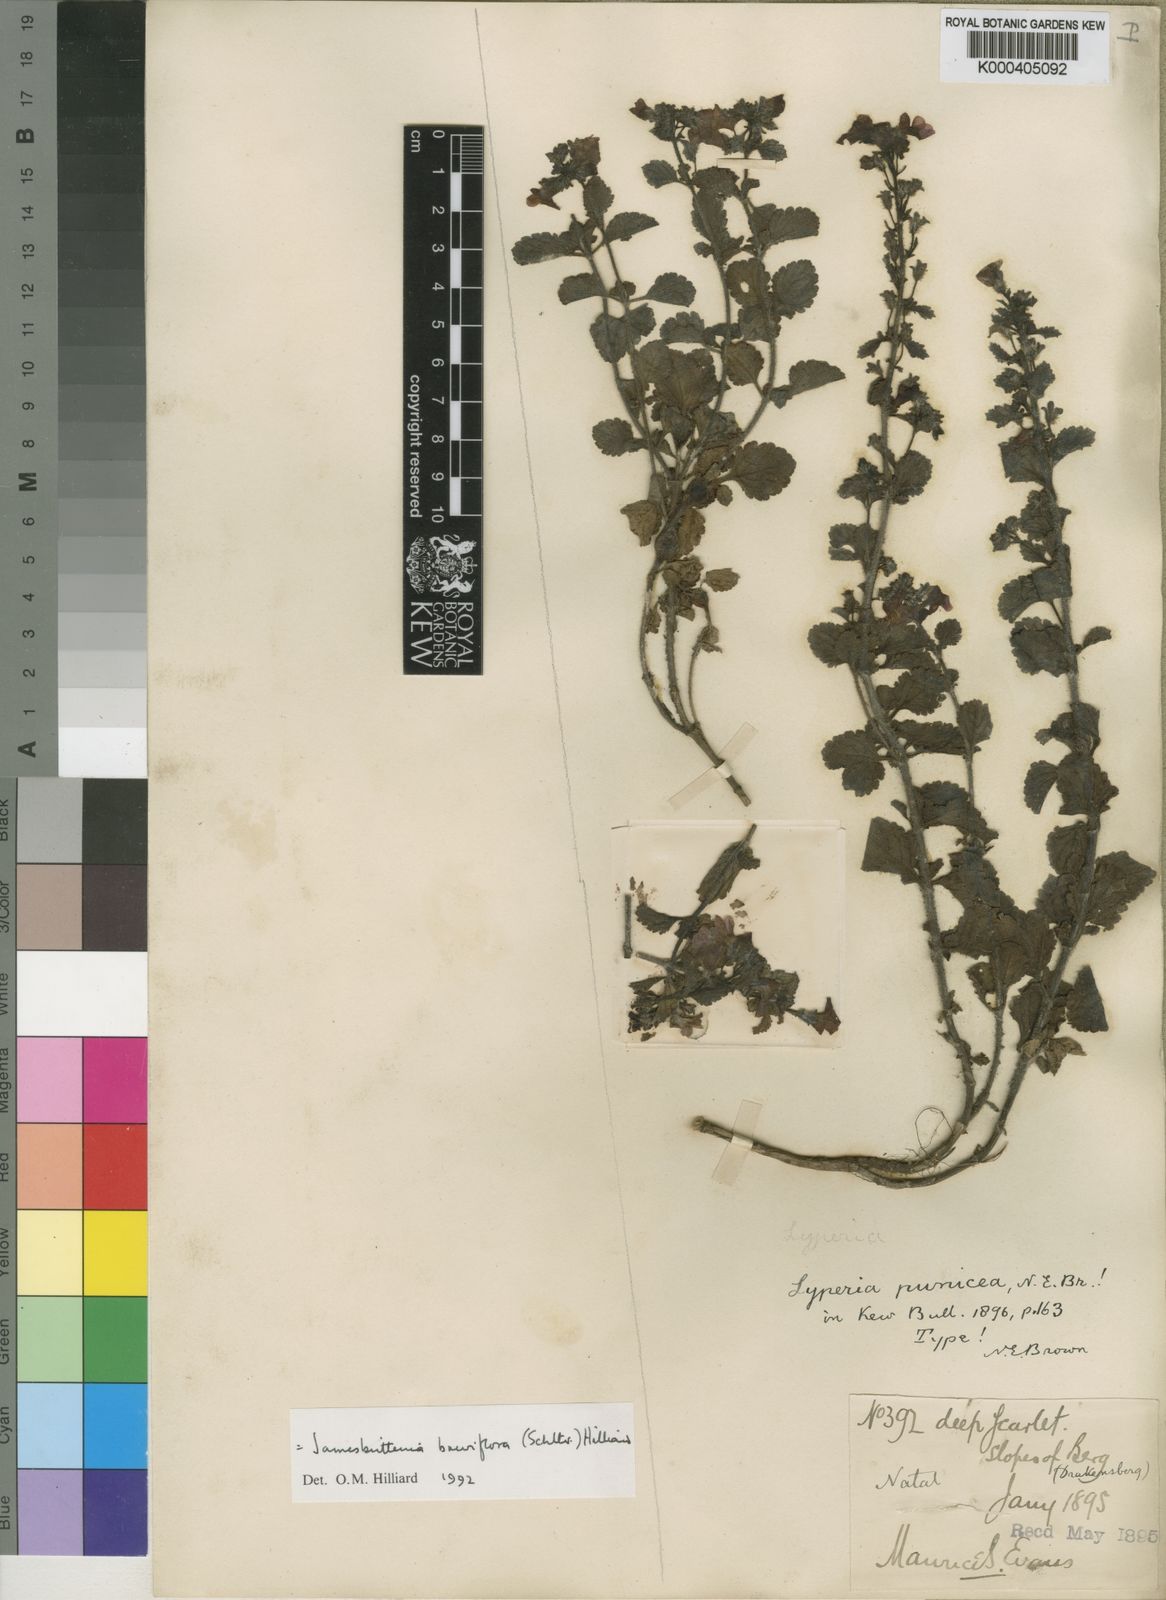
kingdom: Plantae
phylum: Tracheophyta
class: Magnoliopsida
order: Lamiales
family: Scrophulariaceae
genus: Jamesbrittenia
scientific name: Jamesbrittenia breviflora
